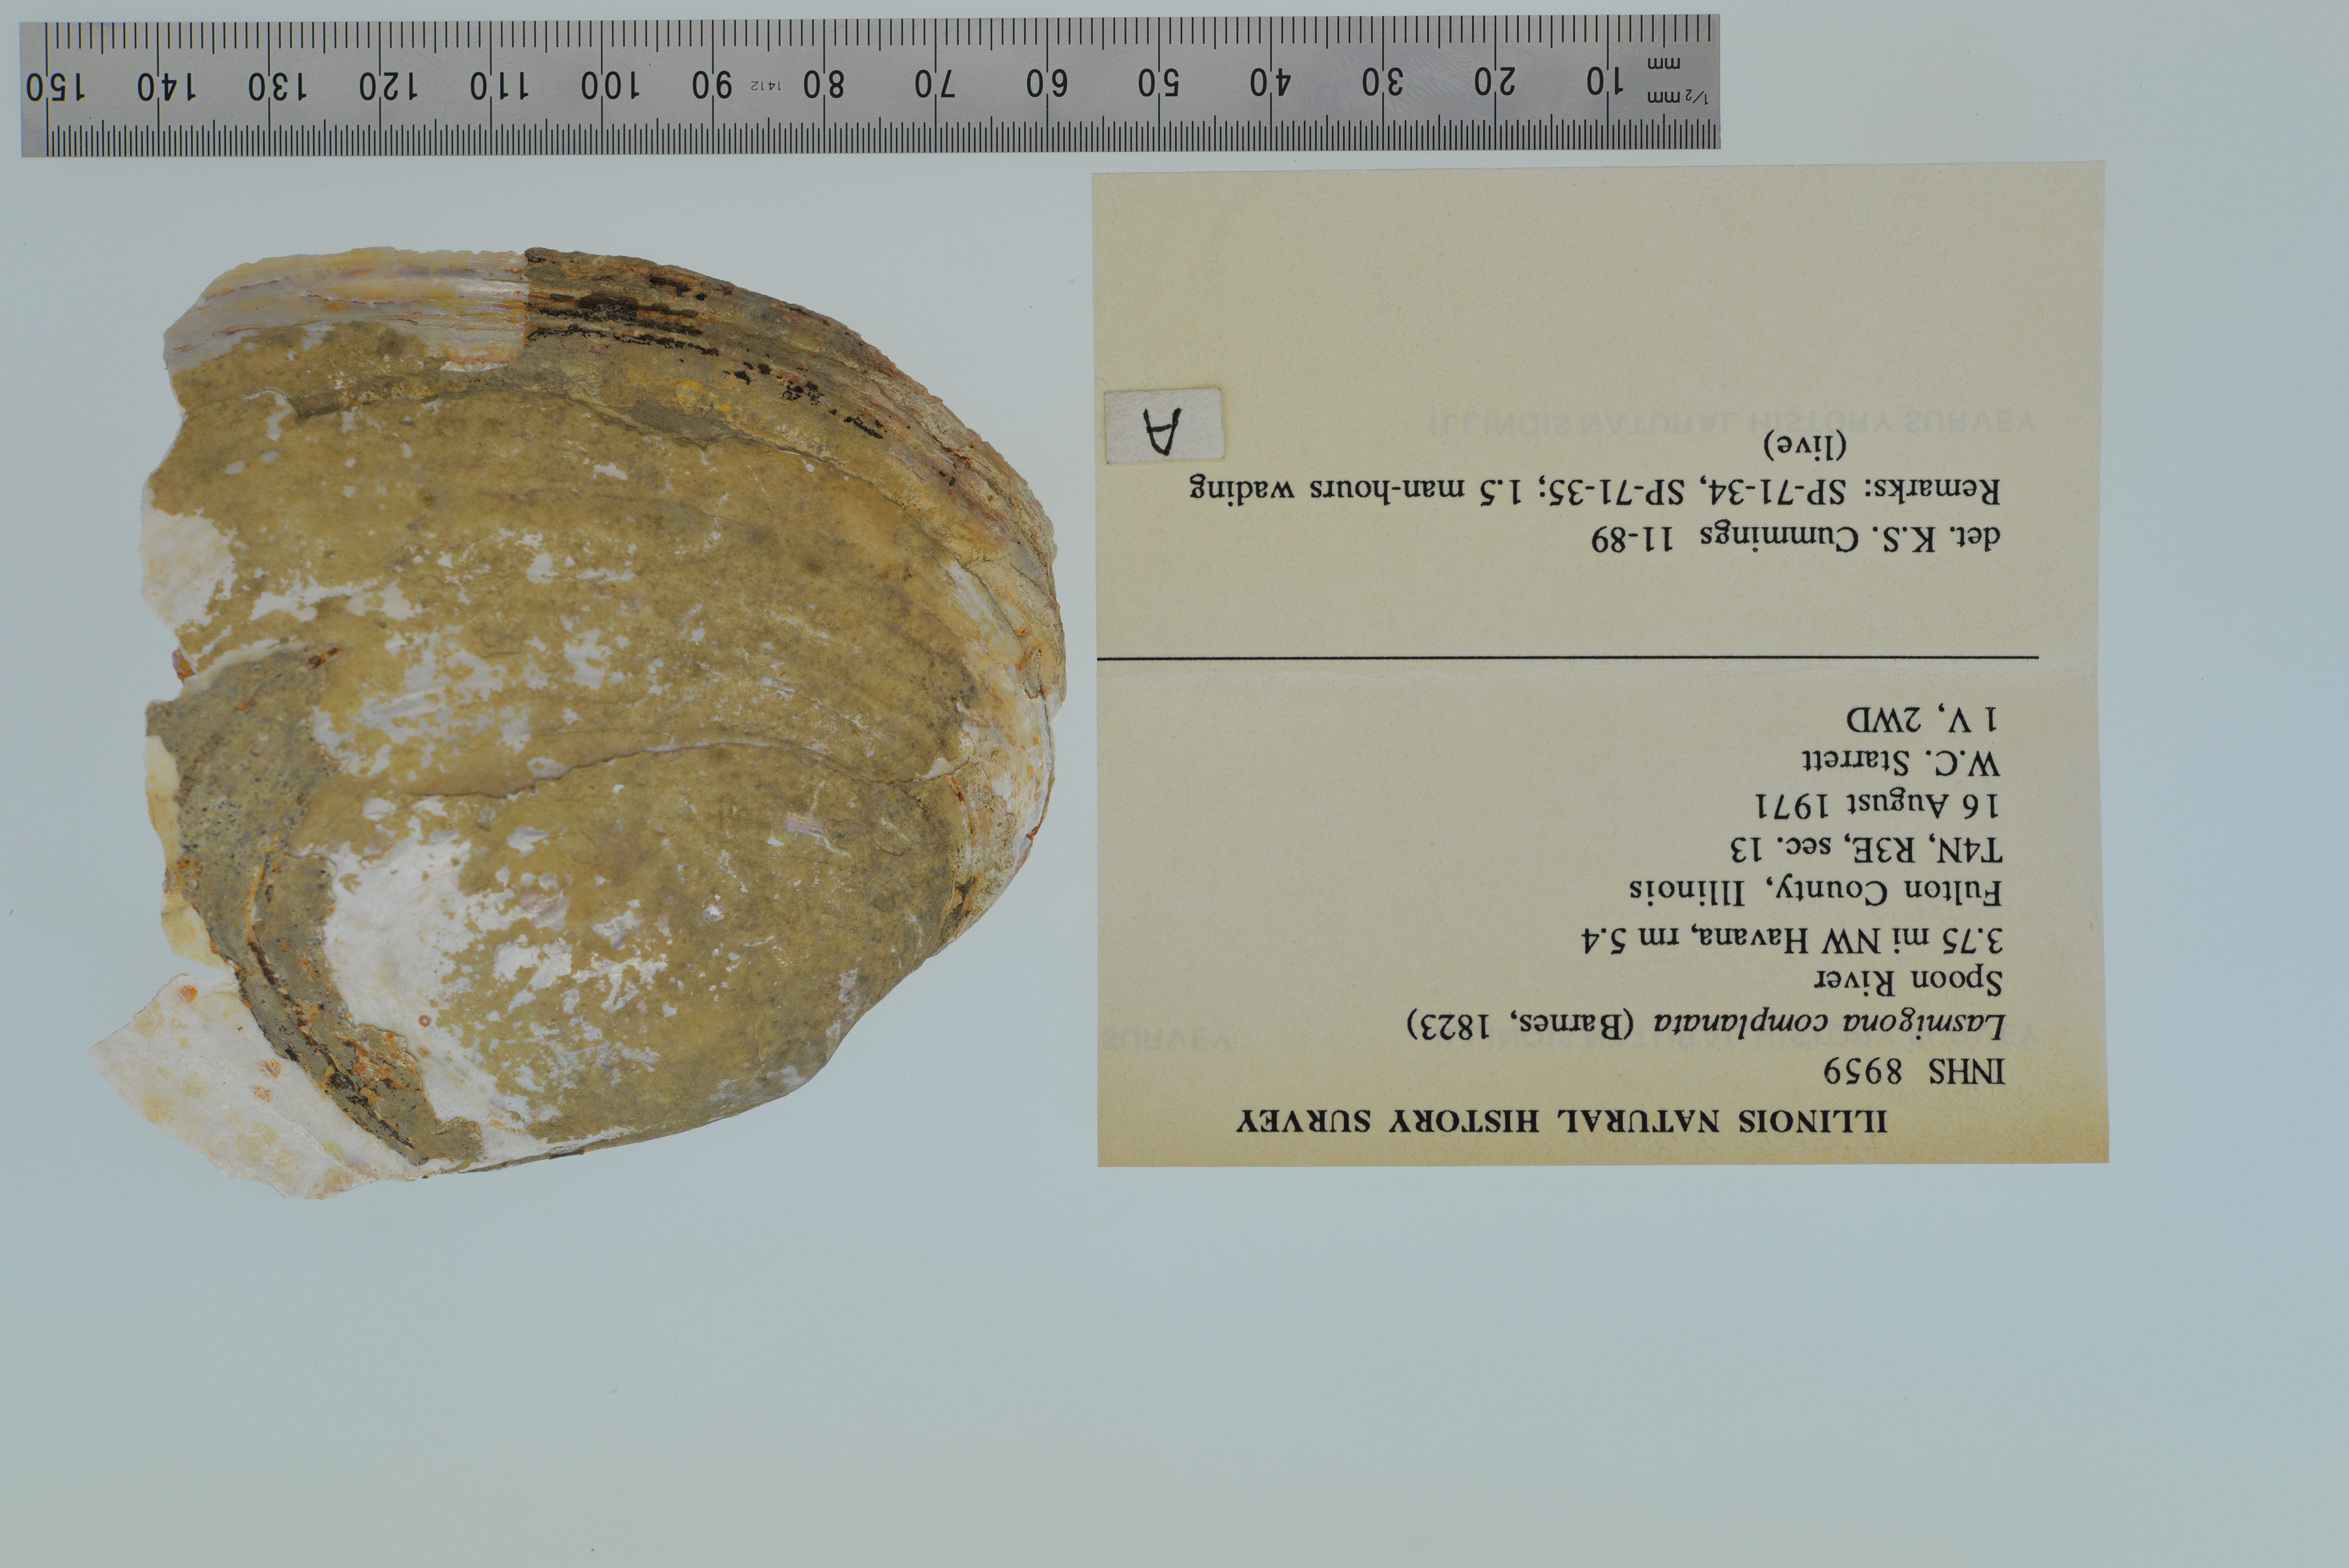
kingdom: Animalia
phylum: Mollusca
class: Bivalvia
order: Unionida
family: Unionidae
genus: Lasmigona
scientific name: Lasmigona complanata
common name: White heelsplitter
